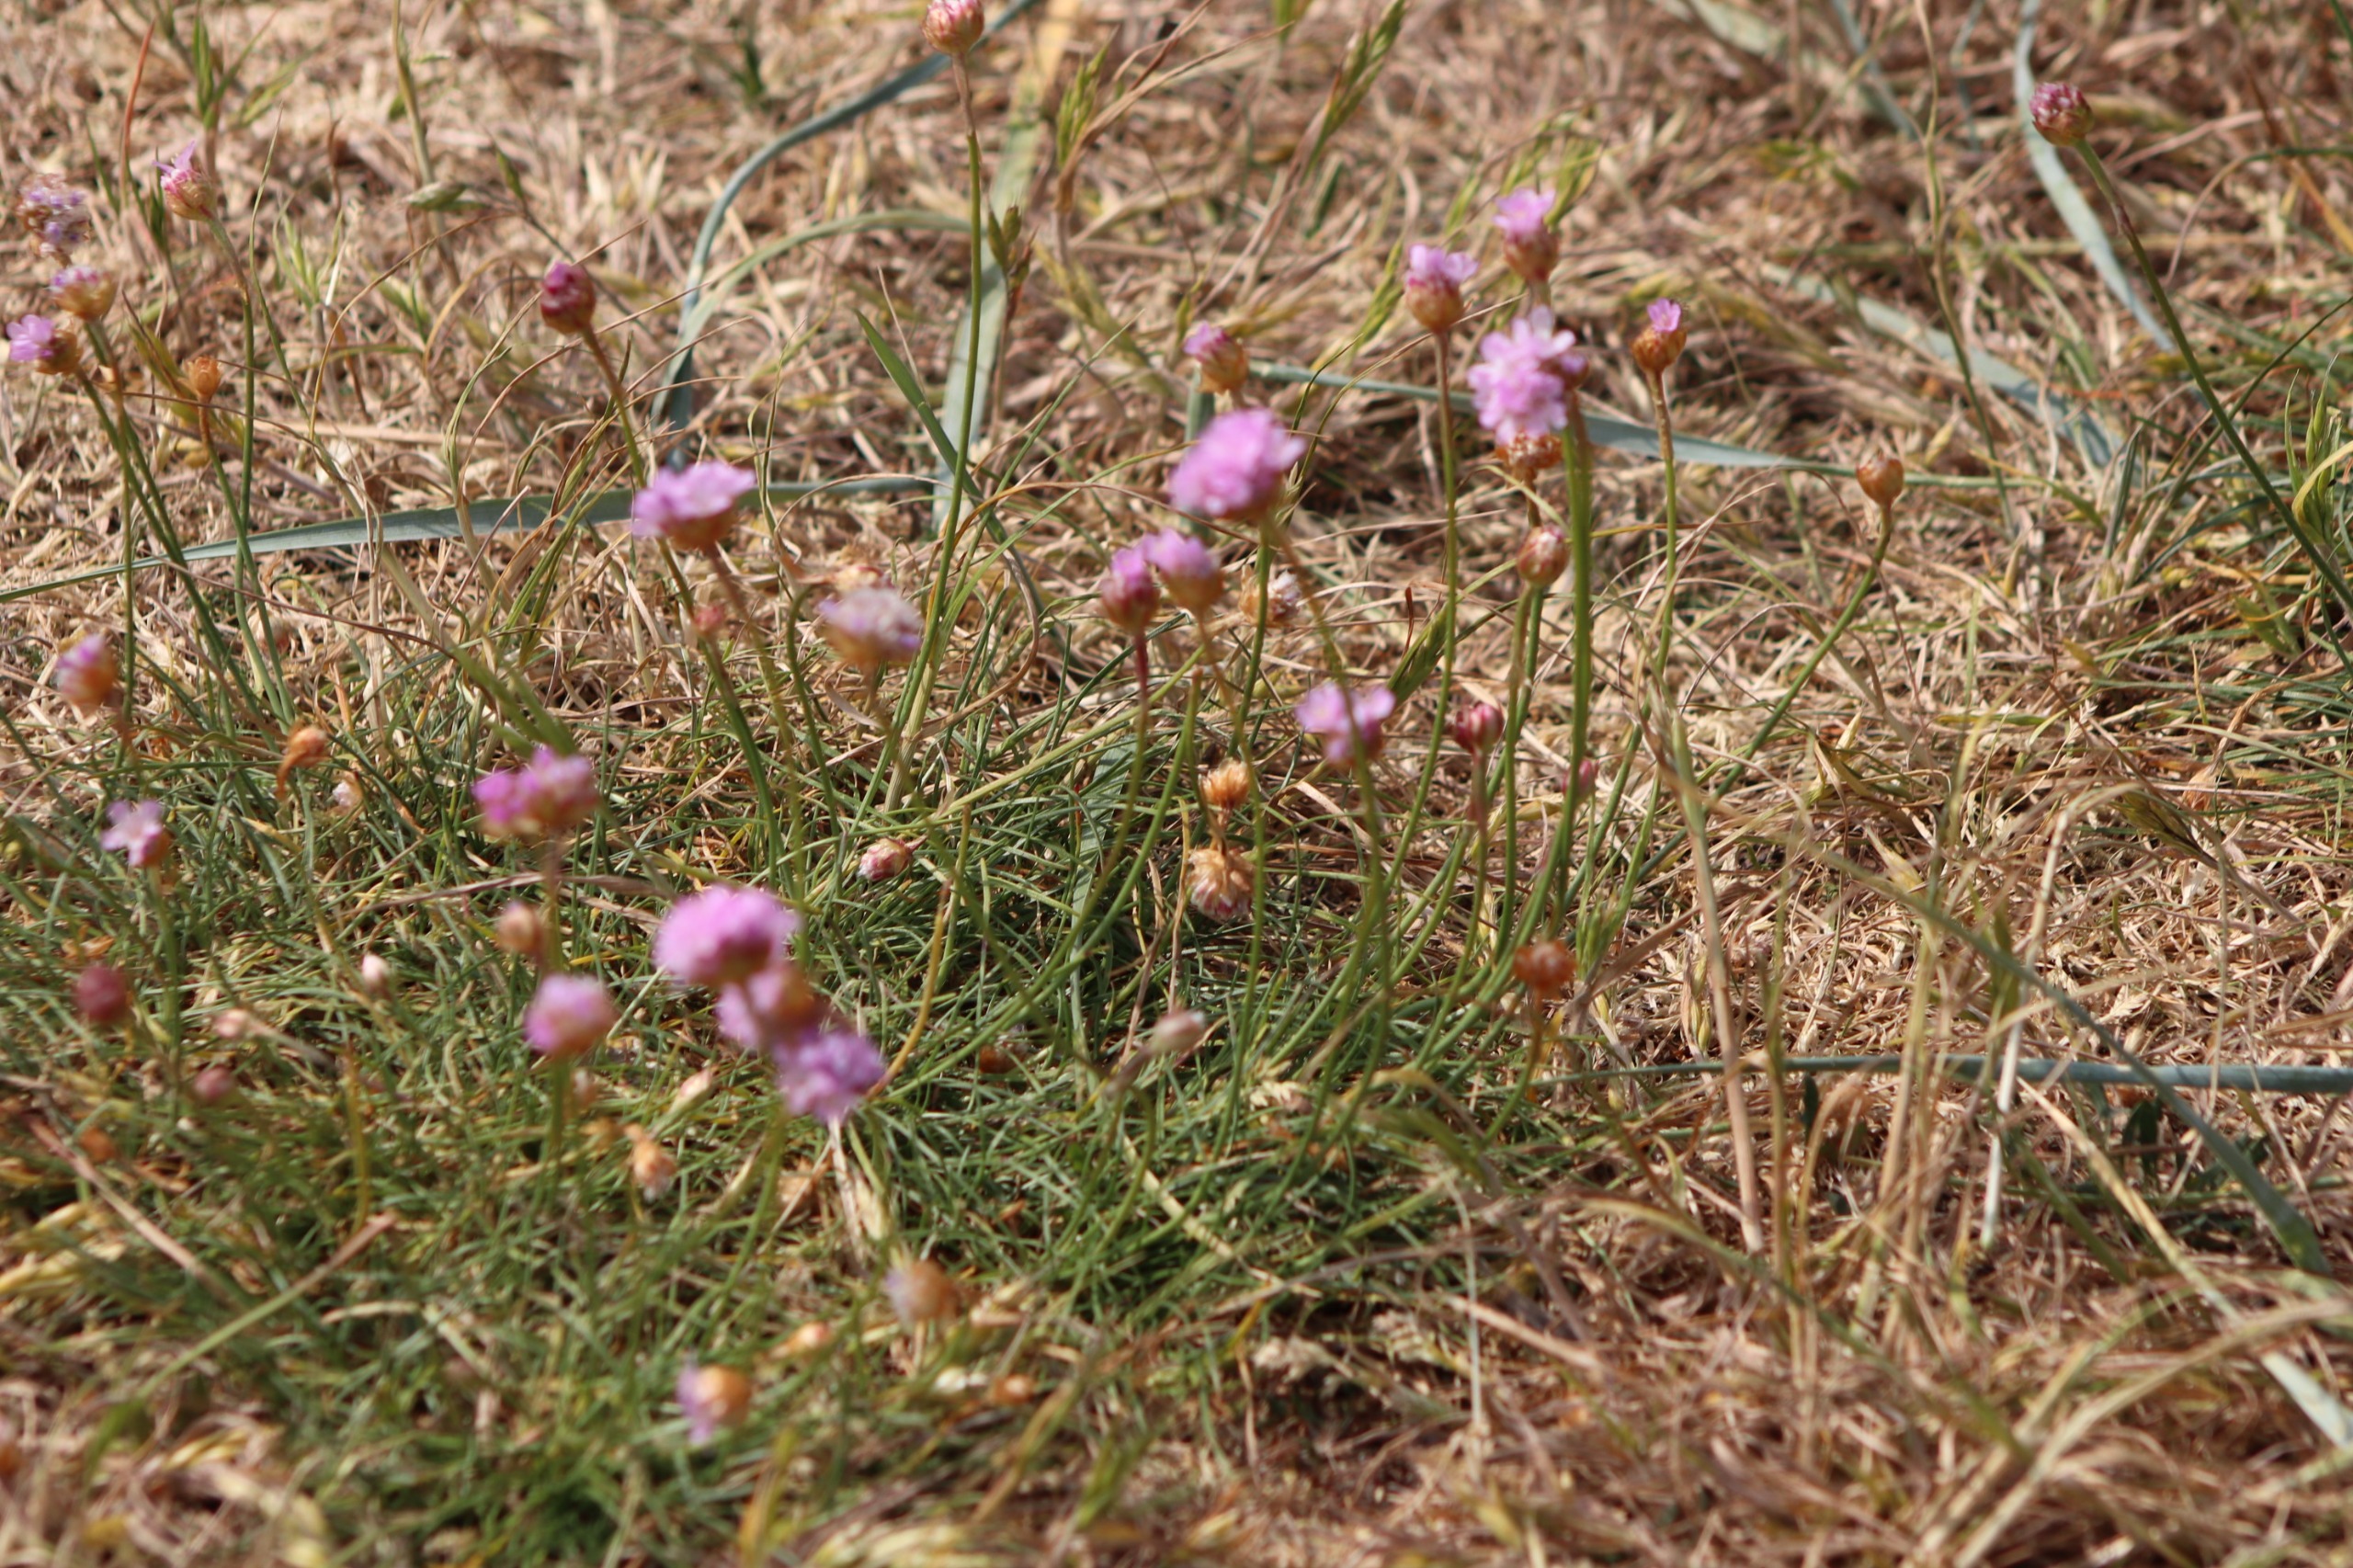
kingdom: Plantae
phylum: Tracheophyta
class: Magnoliopsida
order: Caryophyllales
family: Plumbaginaceae
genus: Armeria
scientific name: Armeria maritima
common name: Engelskgræs
